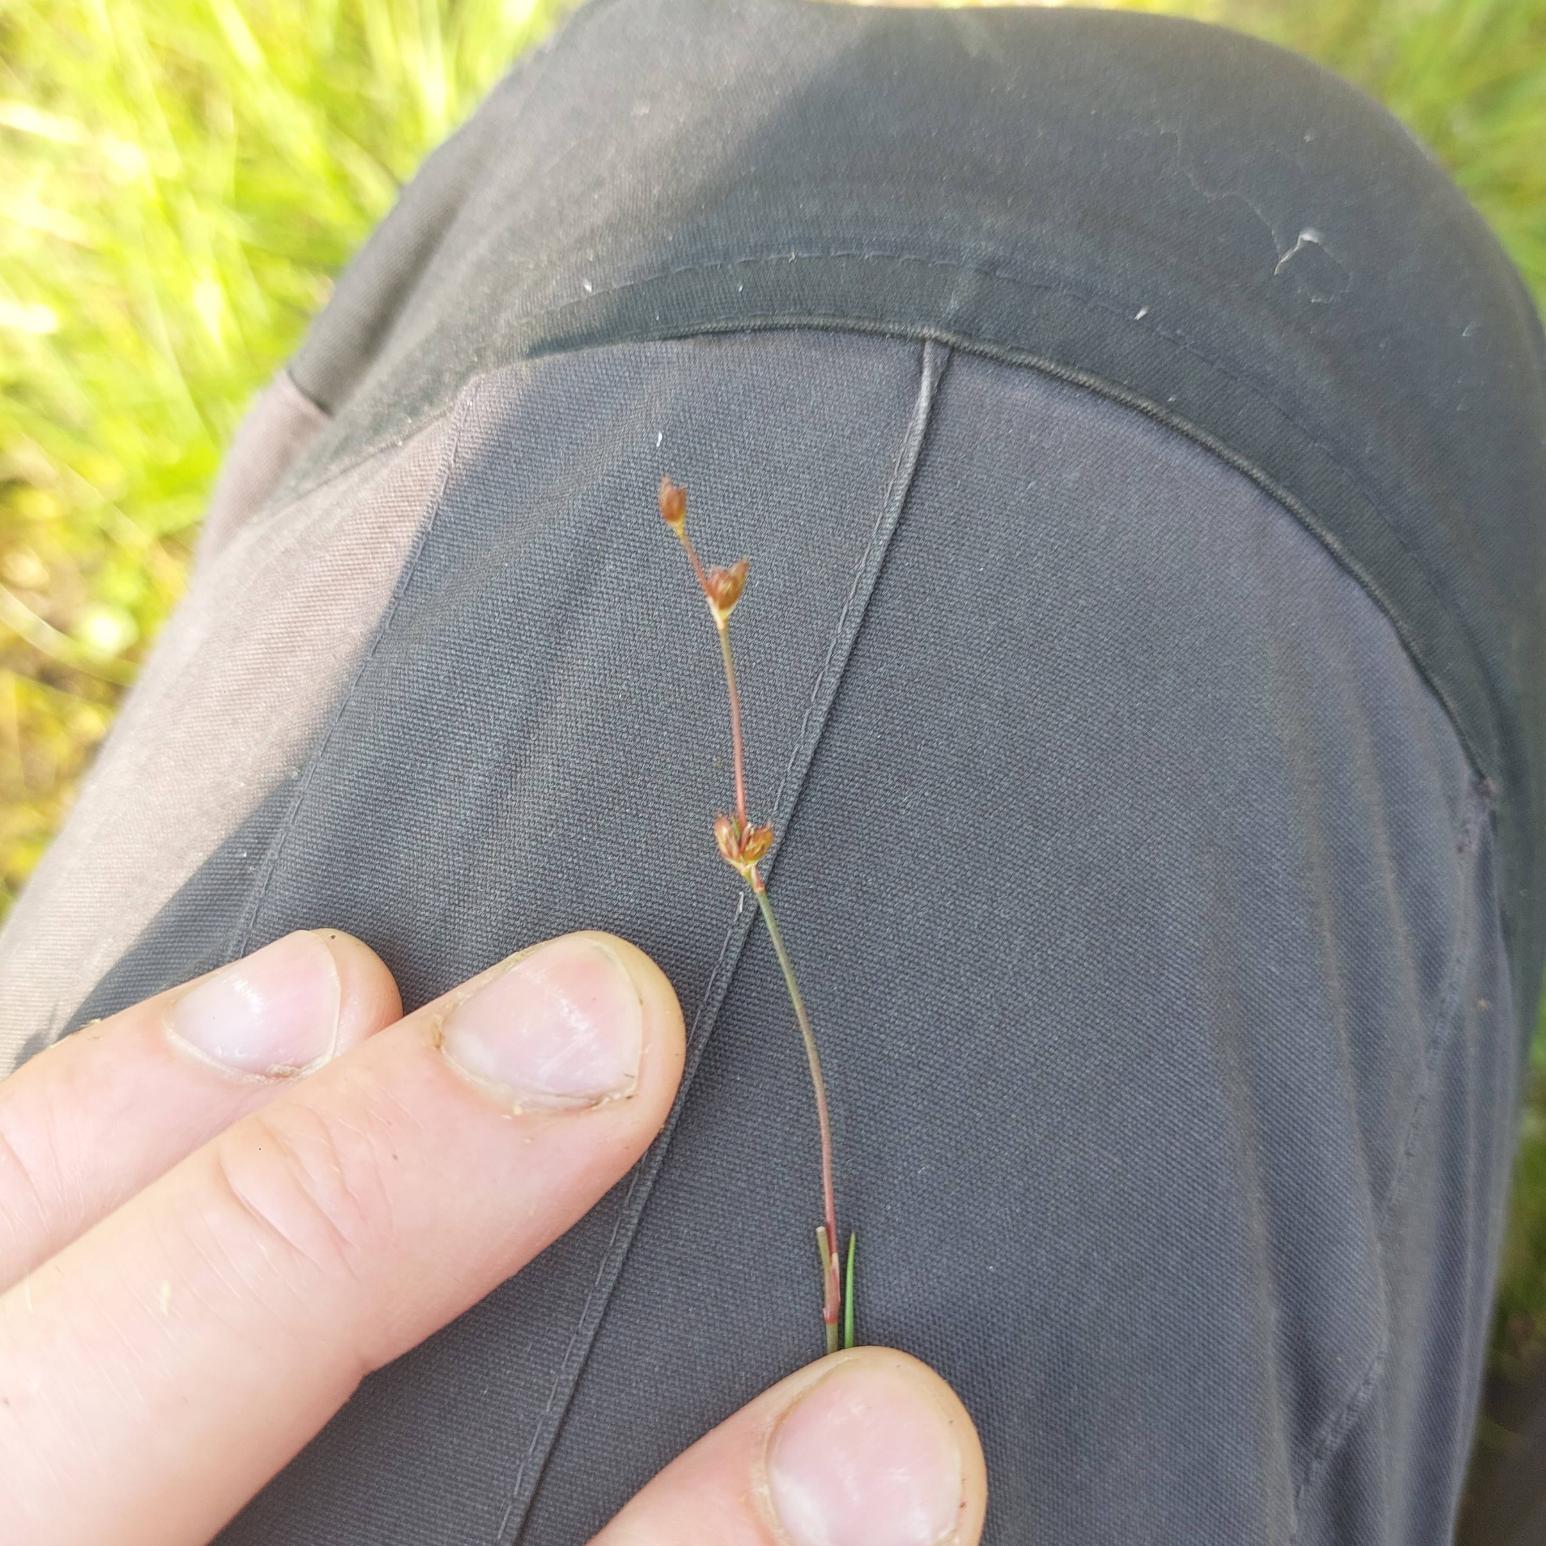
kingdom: Plantae
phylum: Tracheophyta
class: Liliopsida
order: Poales
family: Juncaceae
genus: Juncus
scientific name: Juncus bulbosus
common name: Liden siv
